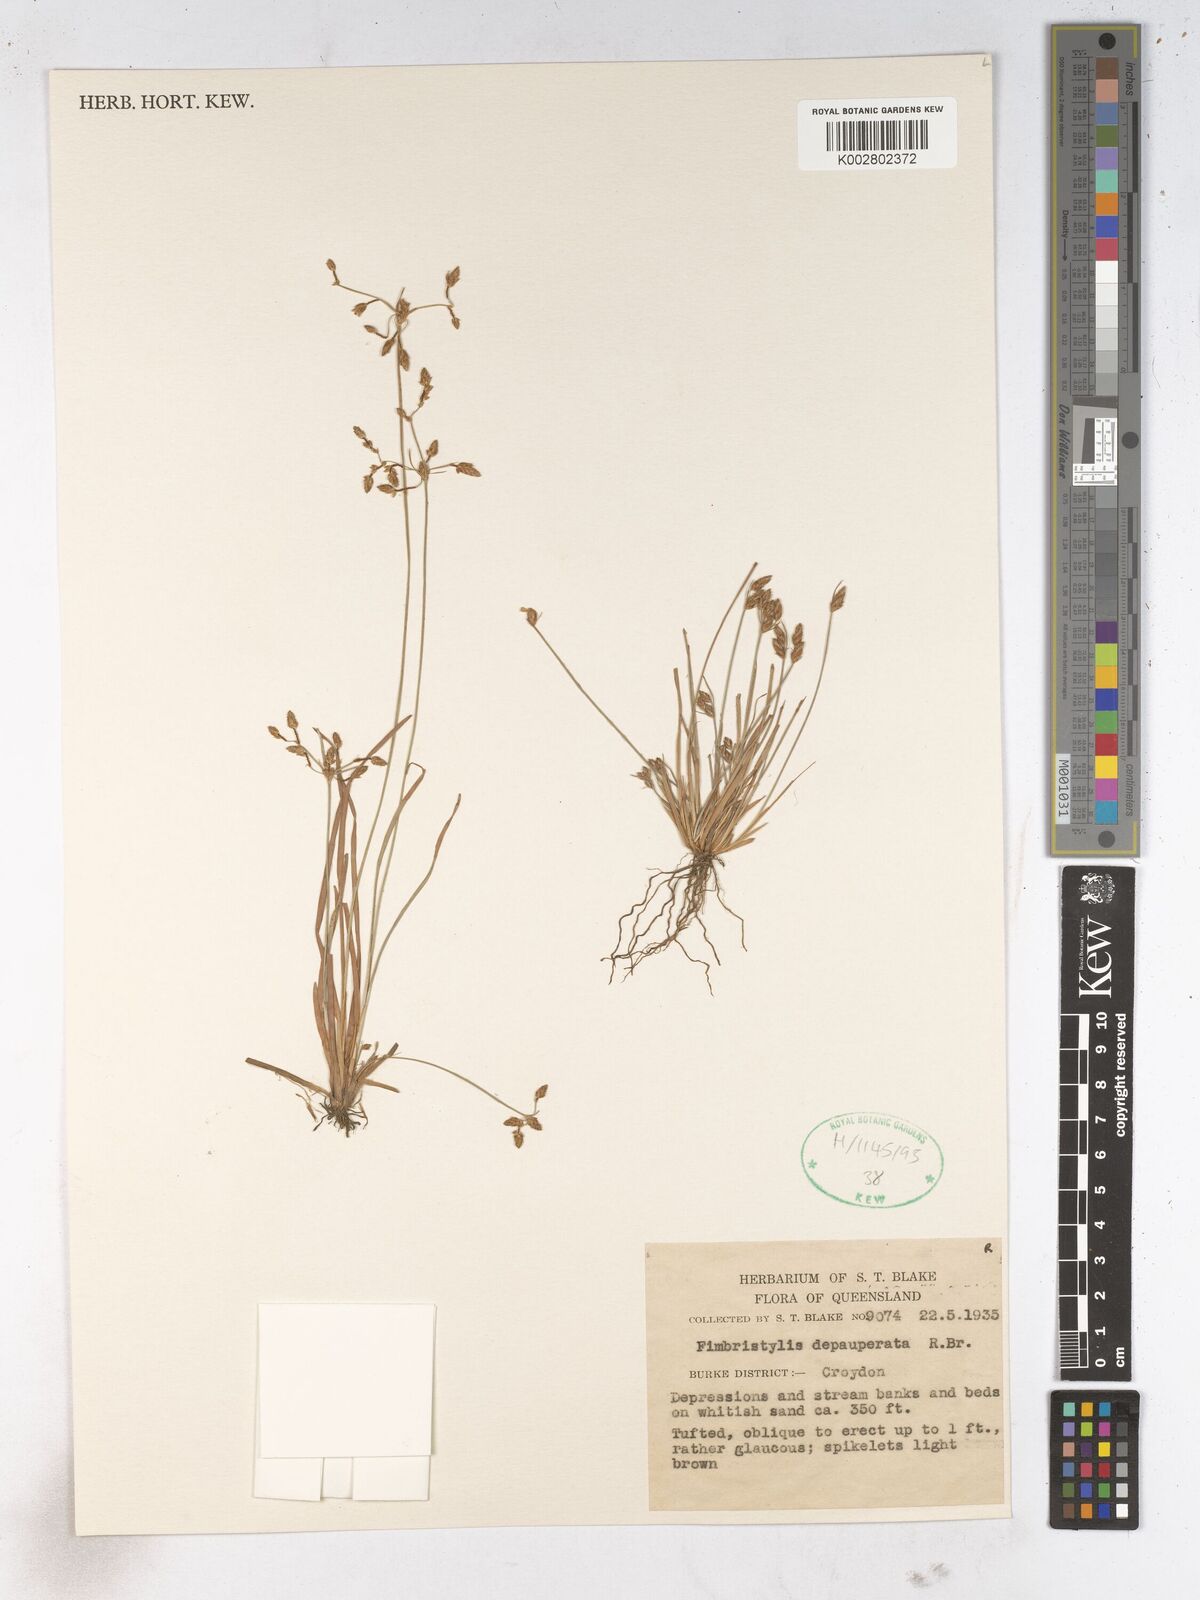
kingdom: Plantae
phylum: Tracheophyta
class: Liliopsida
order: Poales
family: Cyperaceae
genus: Fimbristylis
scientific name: Fimbristylis dichotoma
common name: Forked fimbry
